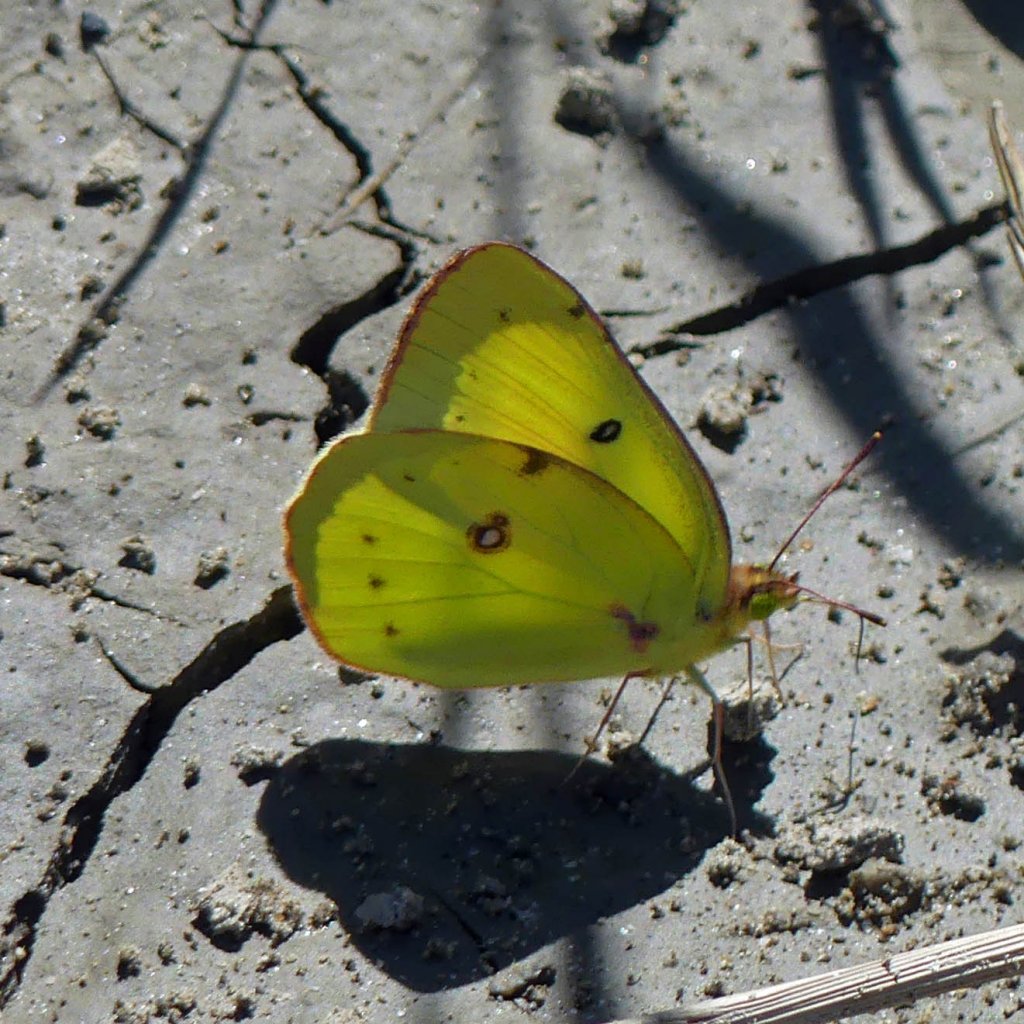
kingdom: Animalia
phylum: Arthropoda
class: Insecta
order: Lepidoptera
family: Pieridae
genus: Colias
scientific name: Colias philodice
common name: Clouded Sulphur
